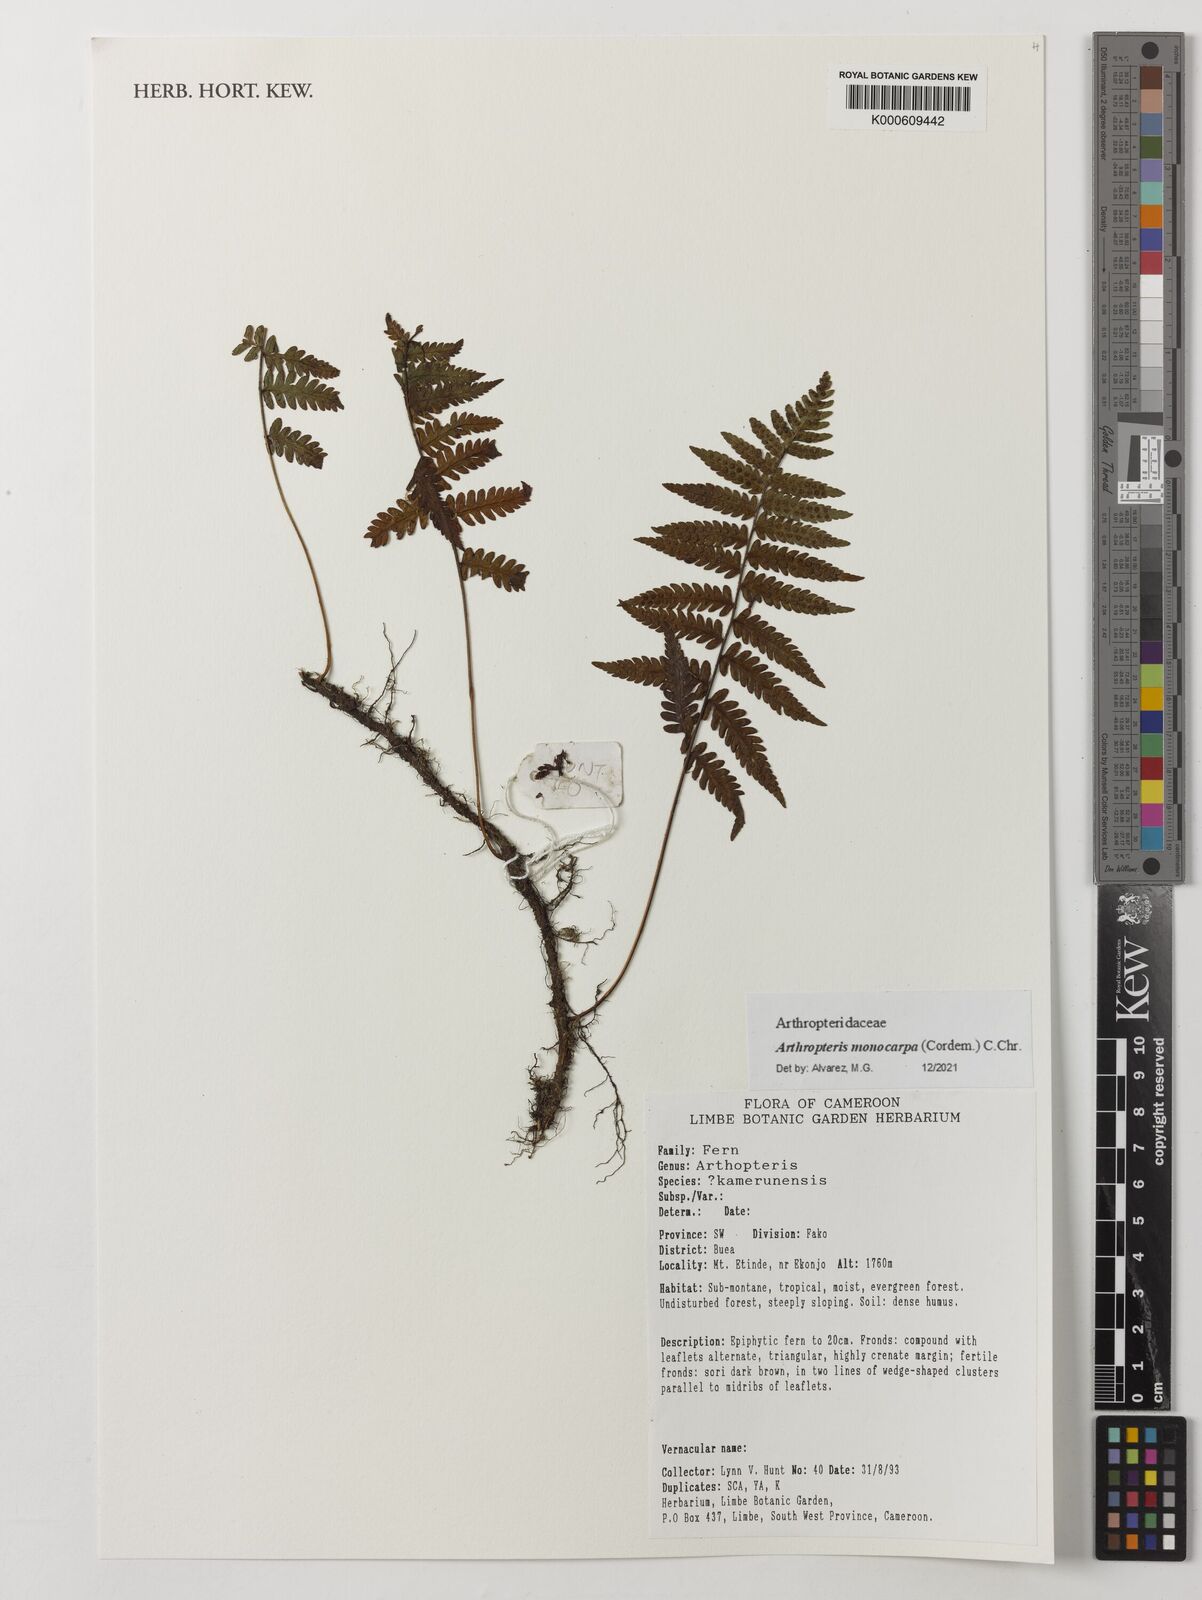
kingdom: Plantae
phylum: Tracheophyta
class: Polypodiopsida
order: Polypodiales
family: Tectariaceae
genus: Arthropteris
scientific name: Arthropteris monocarpa
